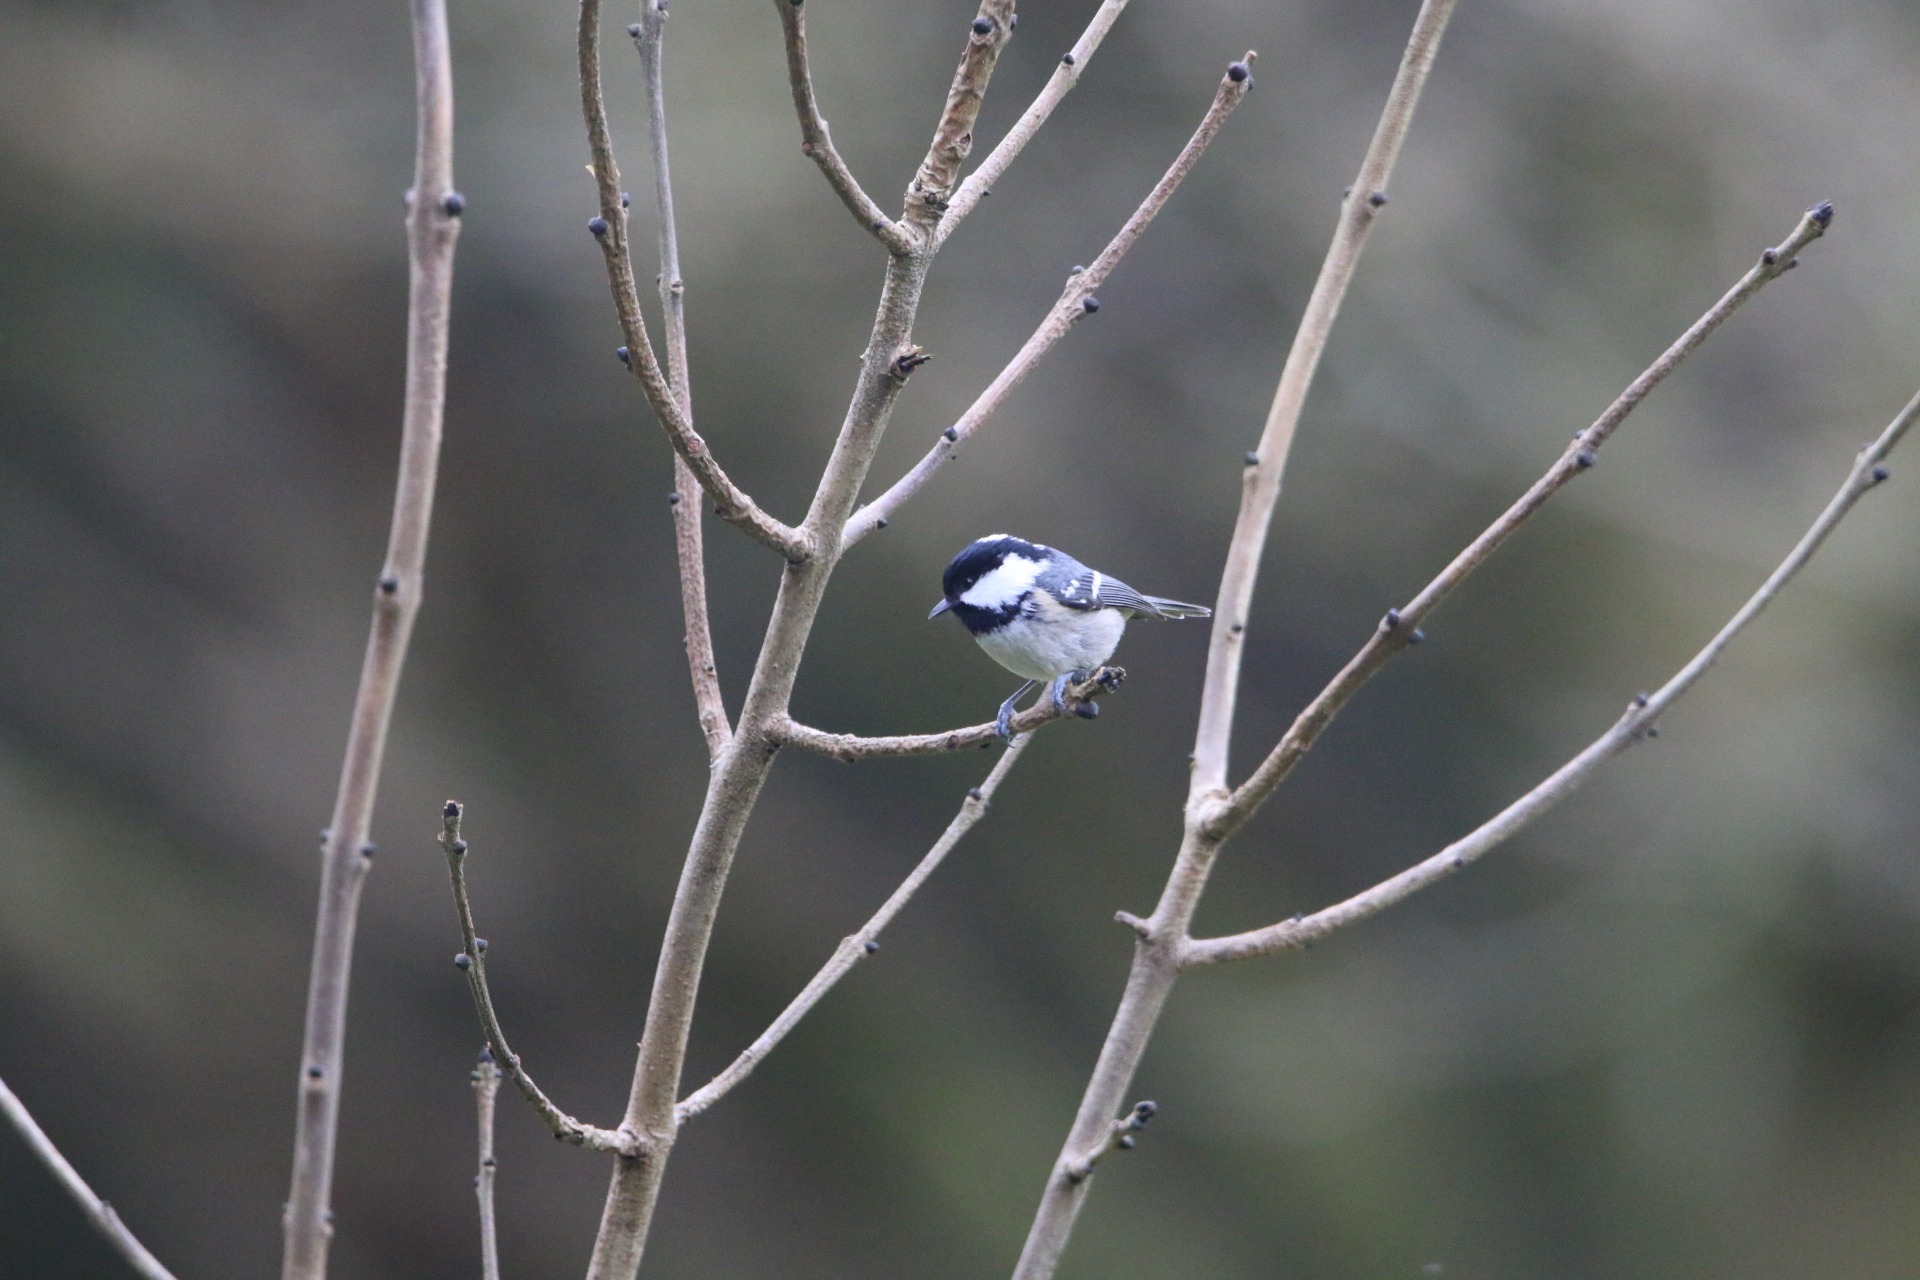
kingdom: Animalia
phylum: Chordata
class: Aves
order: Passeriformes
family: Paridae
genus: Periparus
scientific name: Periparus ater
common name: Sortmejse
